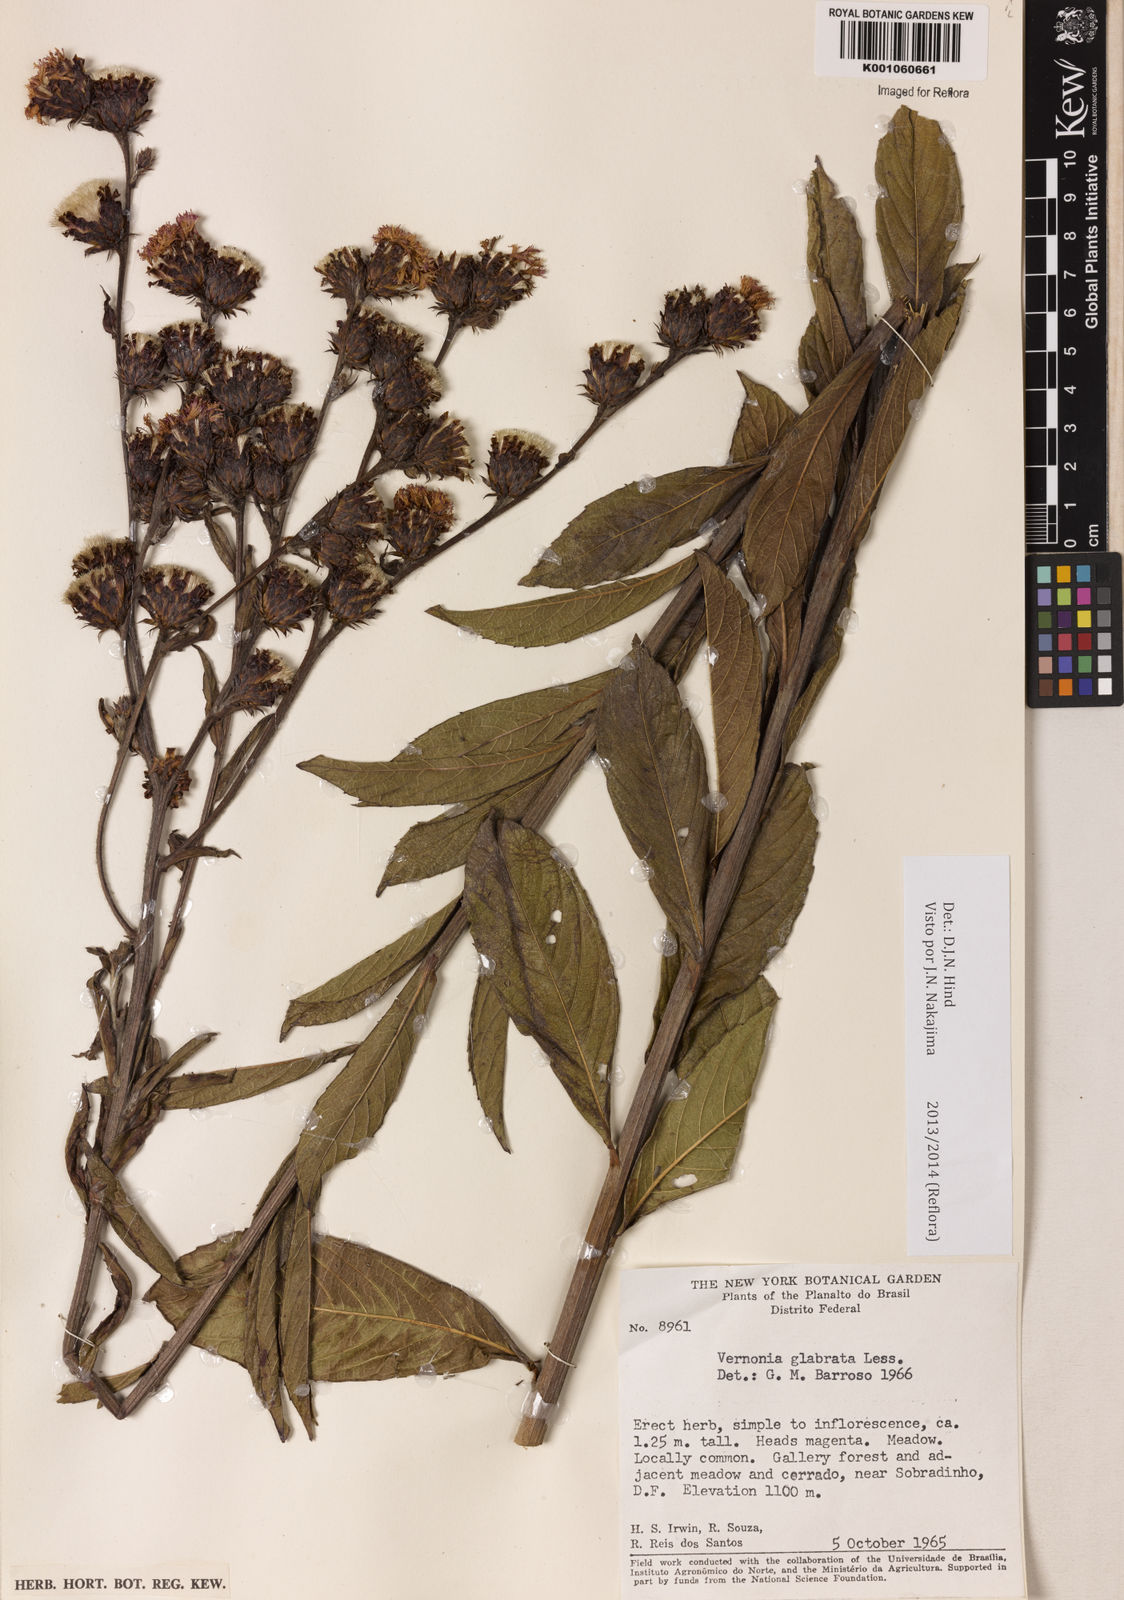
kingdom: Plantae
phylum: Tracheophyta
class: Magnoliopsida
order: Asterales
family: Asteraceae
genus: Lessingianthus
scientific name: Lessingianthus glabratus
